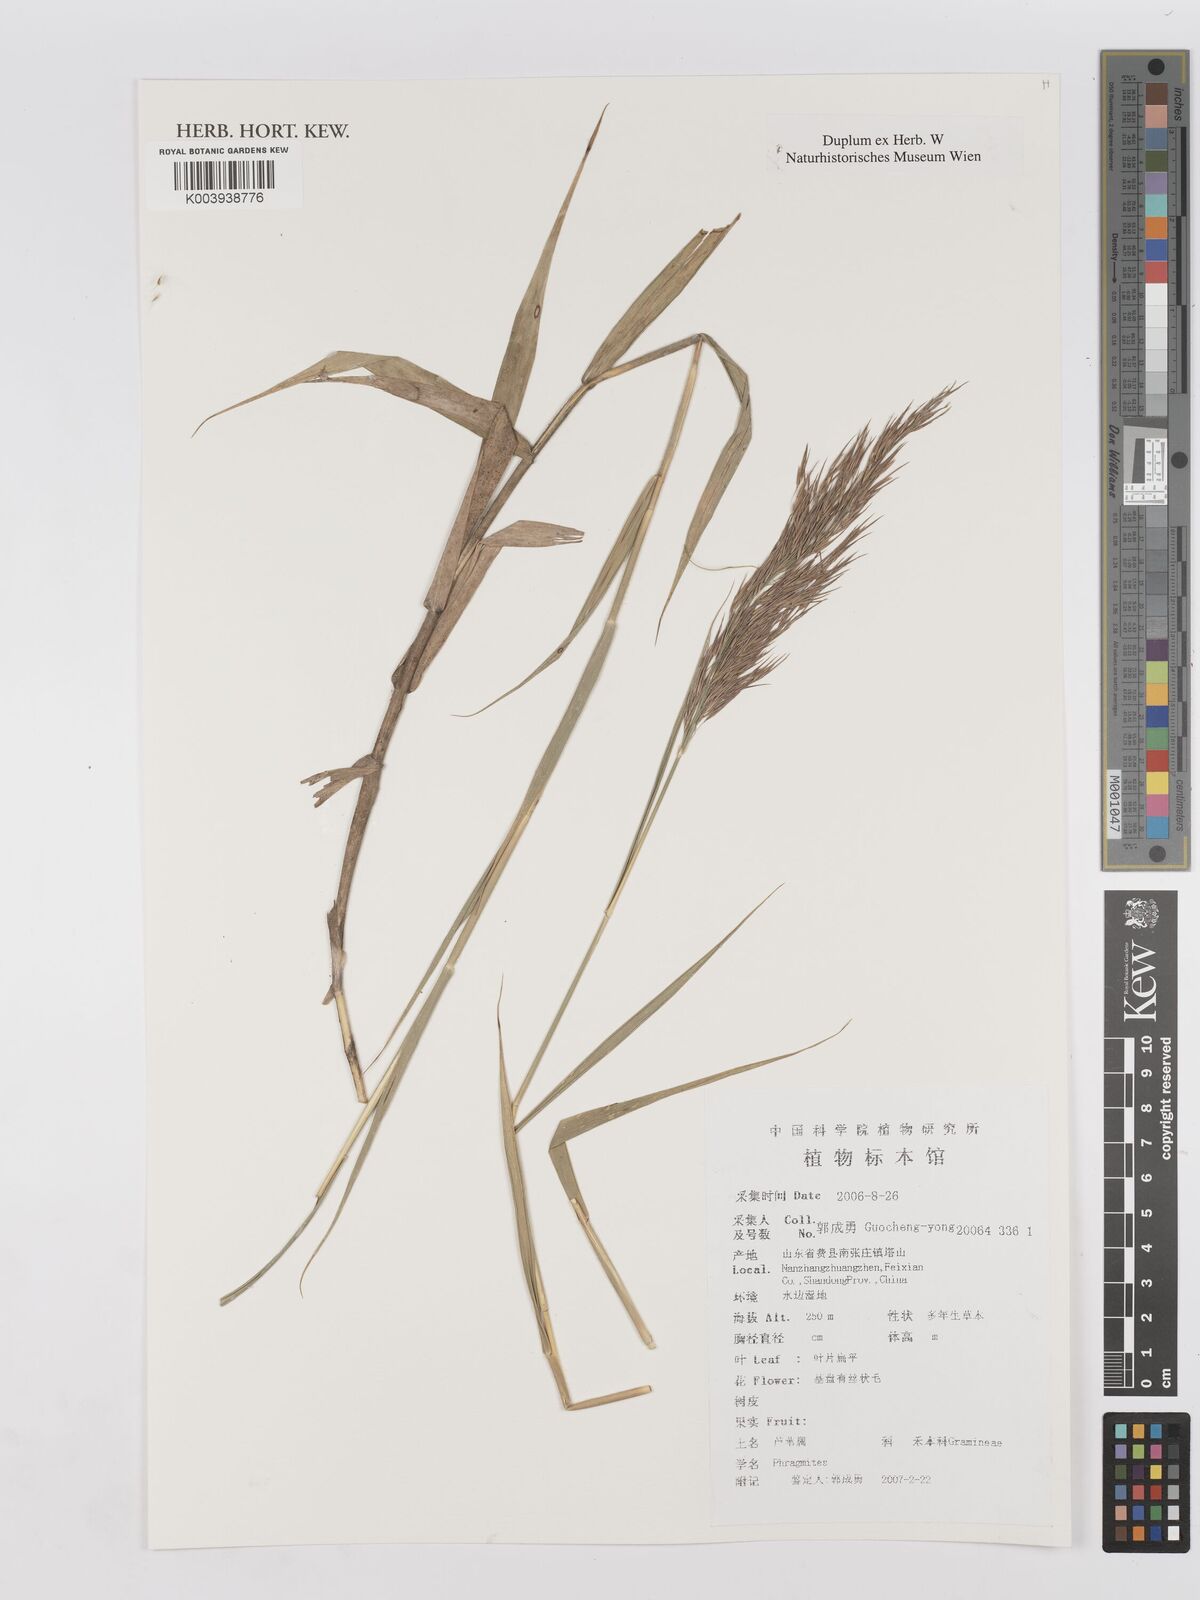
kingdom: Plantae
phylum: Tracheophyta
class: Liliopsida
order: Poales
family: Poaceae
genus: Phragmites
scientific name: Phragmites
